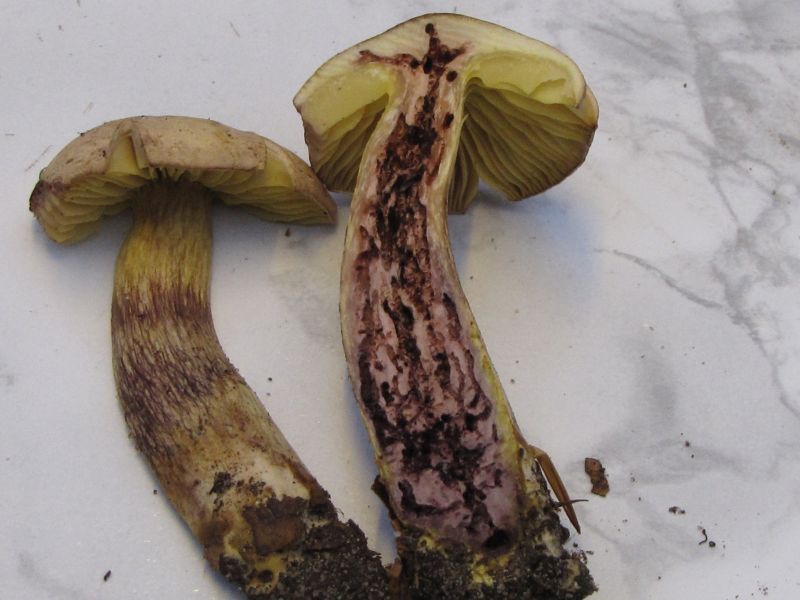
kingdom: Fungi
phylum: Basidiomycota
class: Agaricomycetes
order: Agaricales
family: Tricholomataceae
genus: Tricholoma
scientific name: Tricholoma sulphureum
